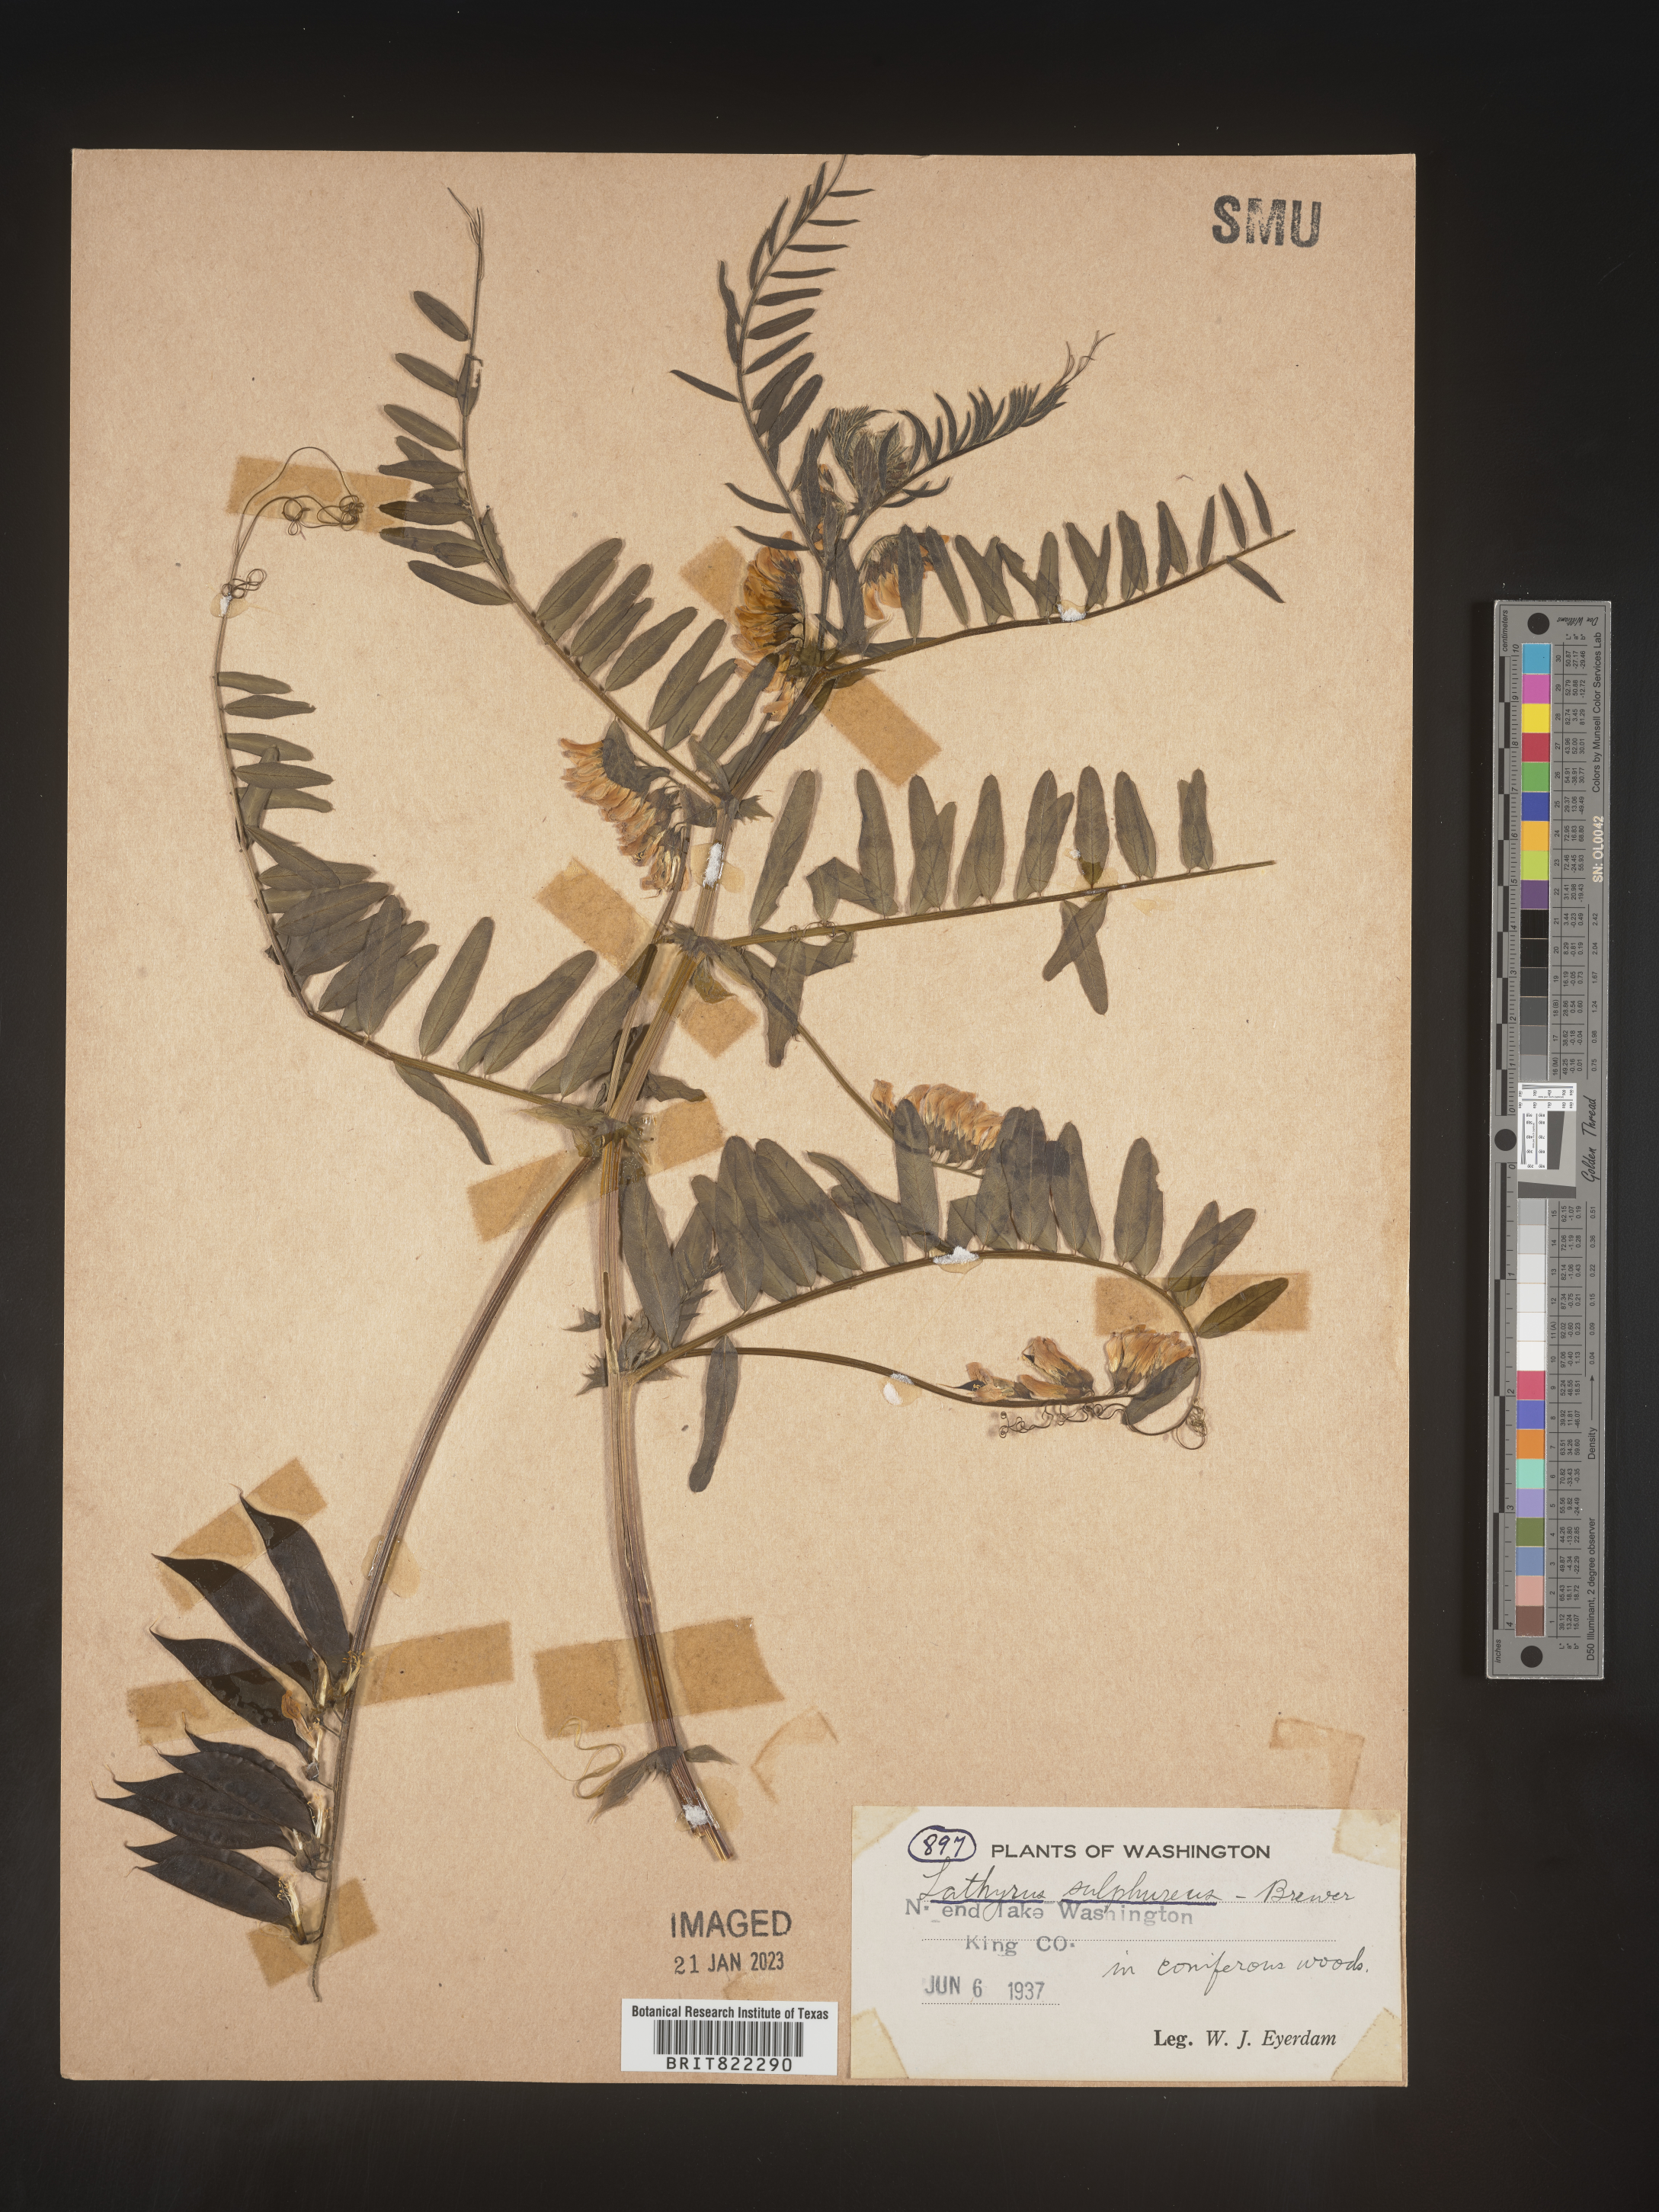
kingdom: Plantae
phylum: Tracheophyta
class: Magnoliopsida
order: Fabales
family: Fabaceae
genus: Lathyrus
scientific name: Lathyrus
